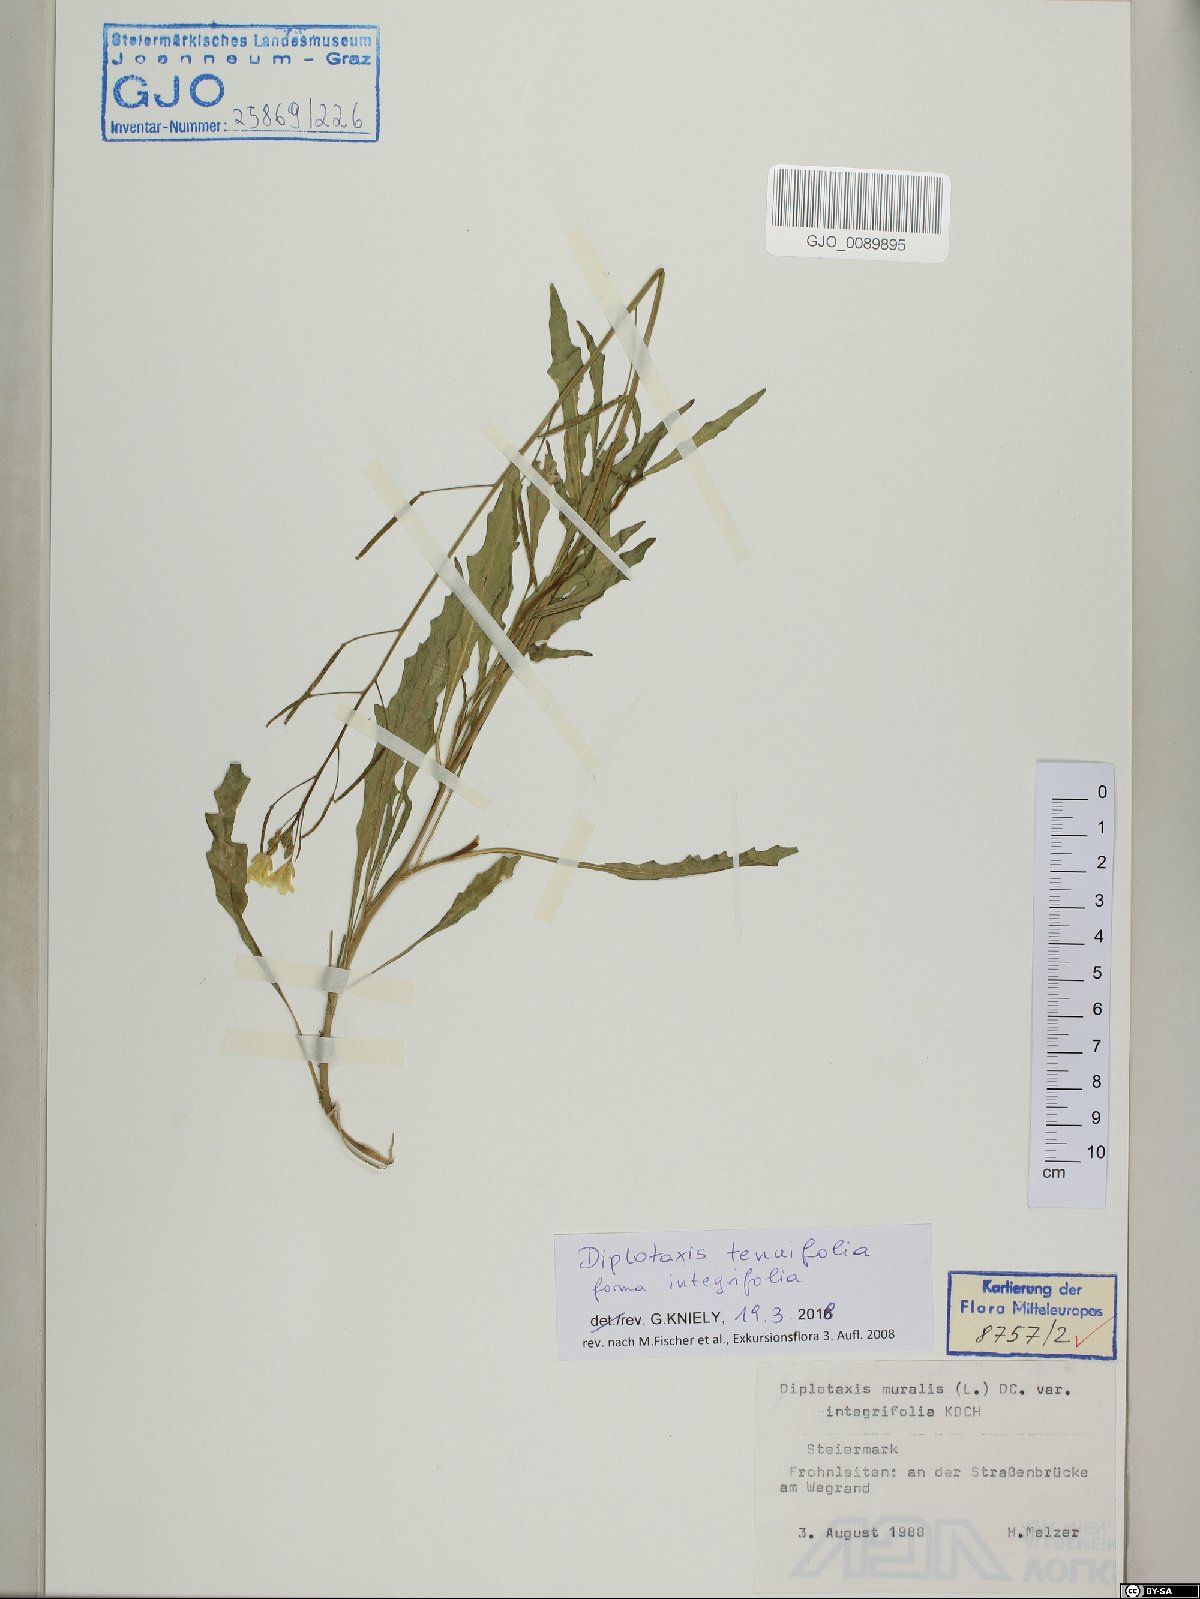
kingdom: Plantae
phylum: Tracheophyta
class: Magnoliopsida
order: Brassicales
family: Brassicaceae
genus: Diplotaxis
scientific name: Diplotaxis tenuifolia
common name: Perennial wall-rocket
